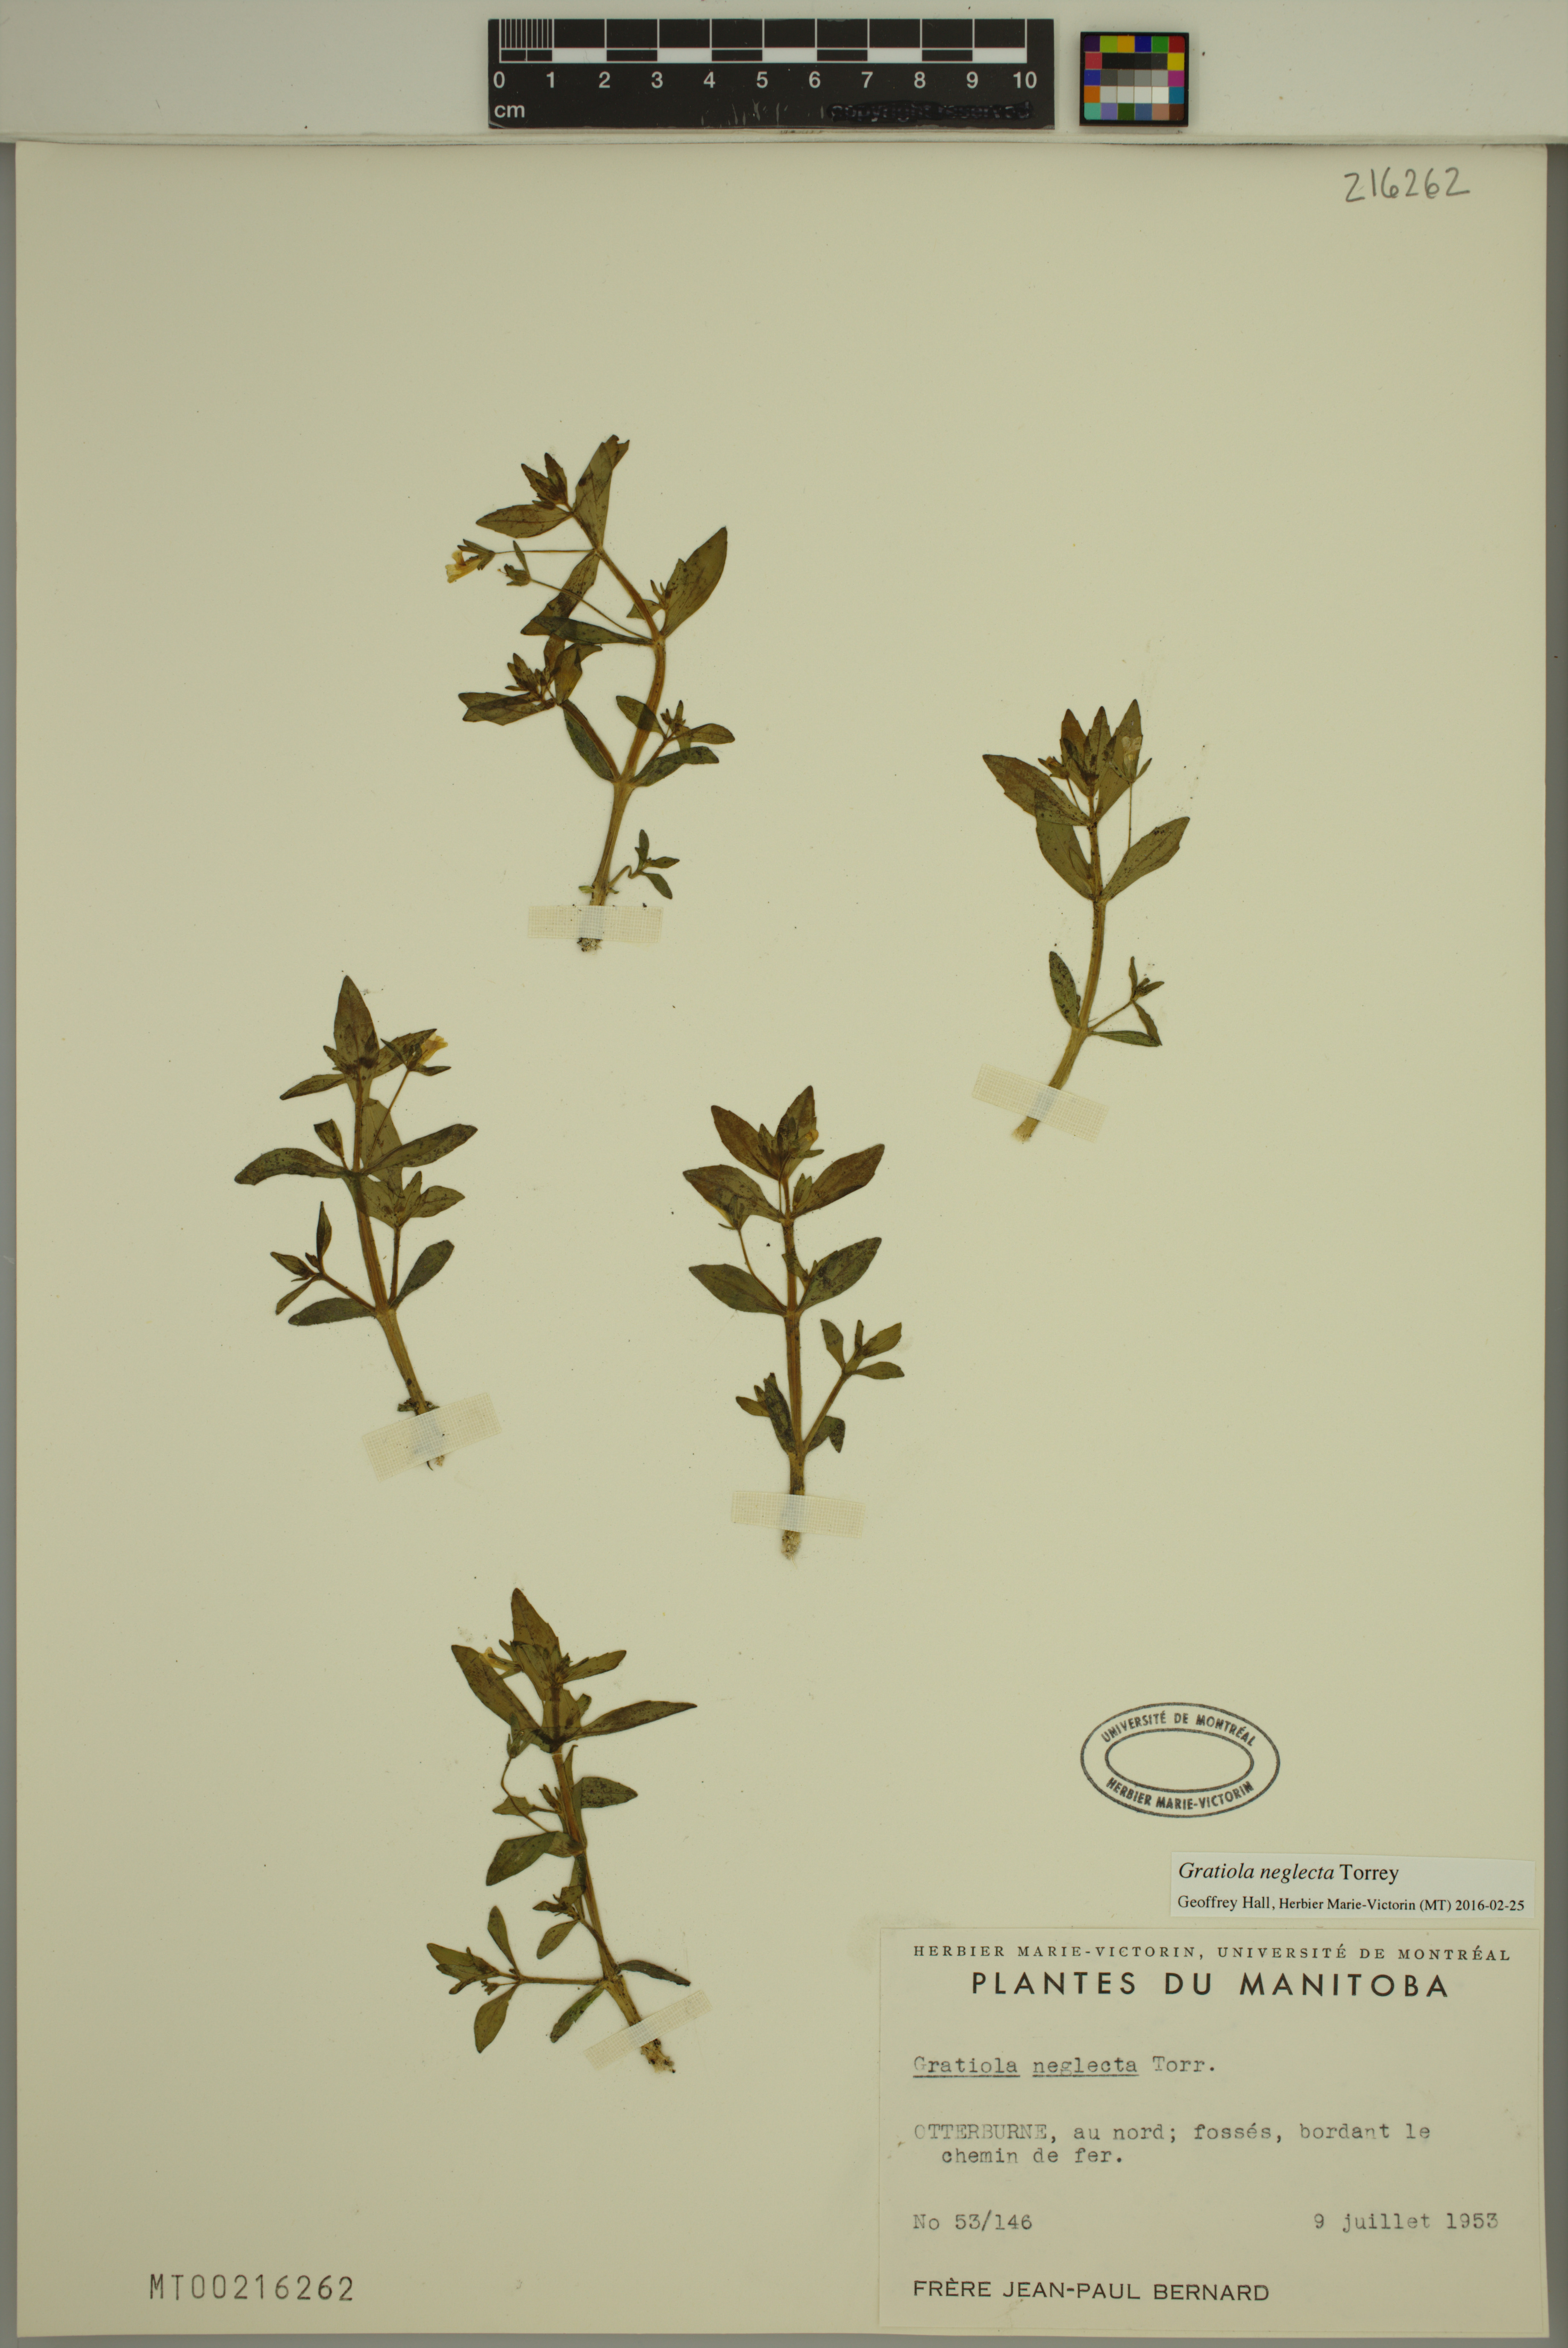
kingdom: Plantae
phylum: Tracheophyta
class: Magnoliopsida
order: Lamiales
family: Plantaginaceae
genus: Gratiola
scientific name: Gratiola neglecta
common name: American hedge-hyssop
